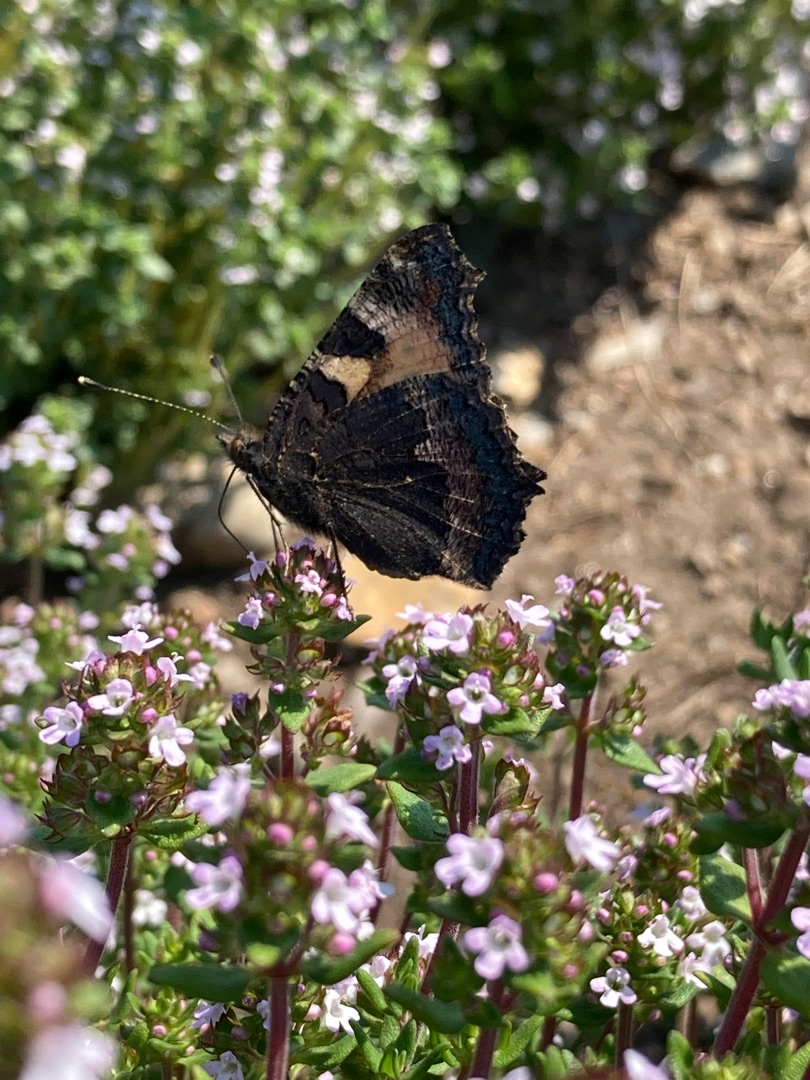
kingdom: Animalia
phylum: Arthropoda
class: Insecta
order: Lepidoptera
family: Nymphalidae
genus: Aglais
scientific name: Aglais urticae
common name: Nældens takvinge
